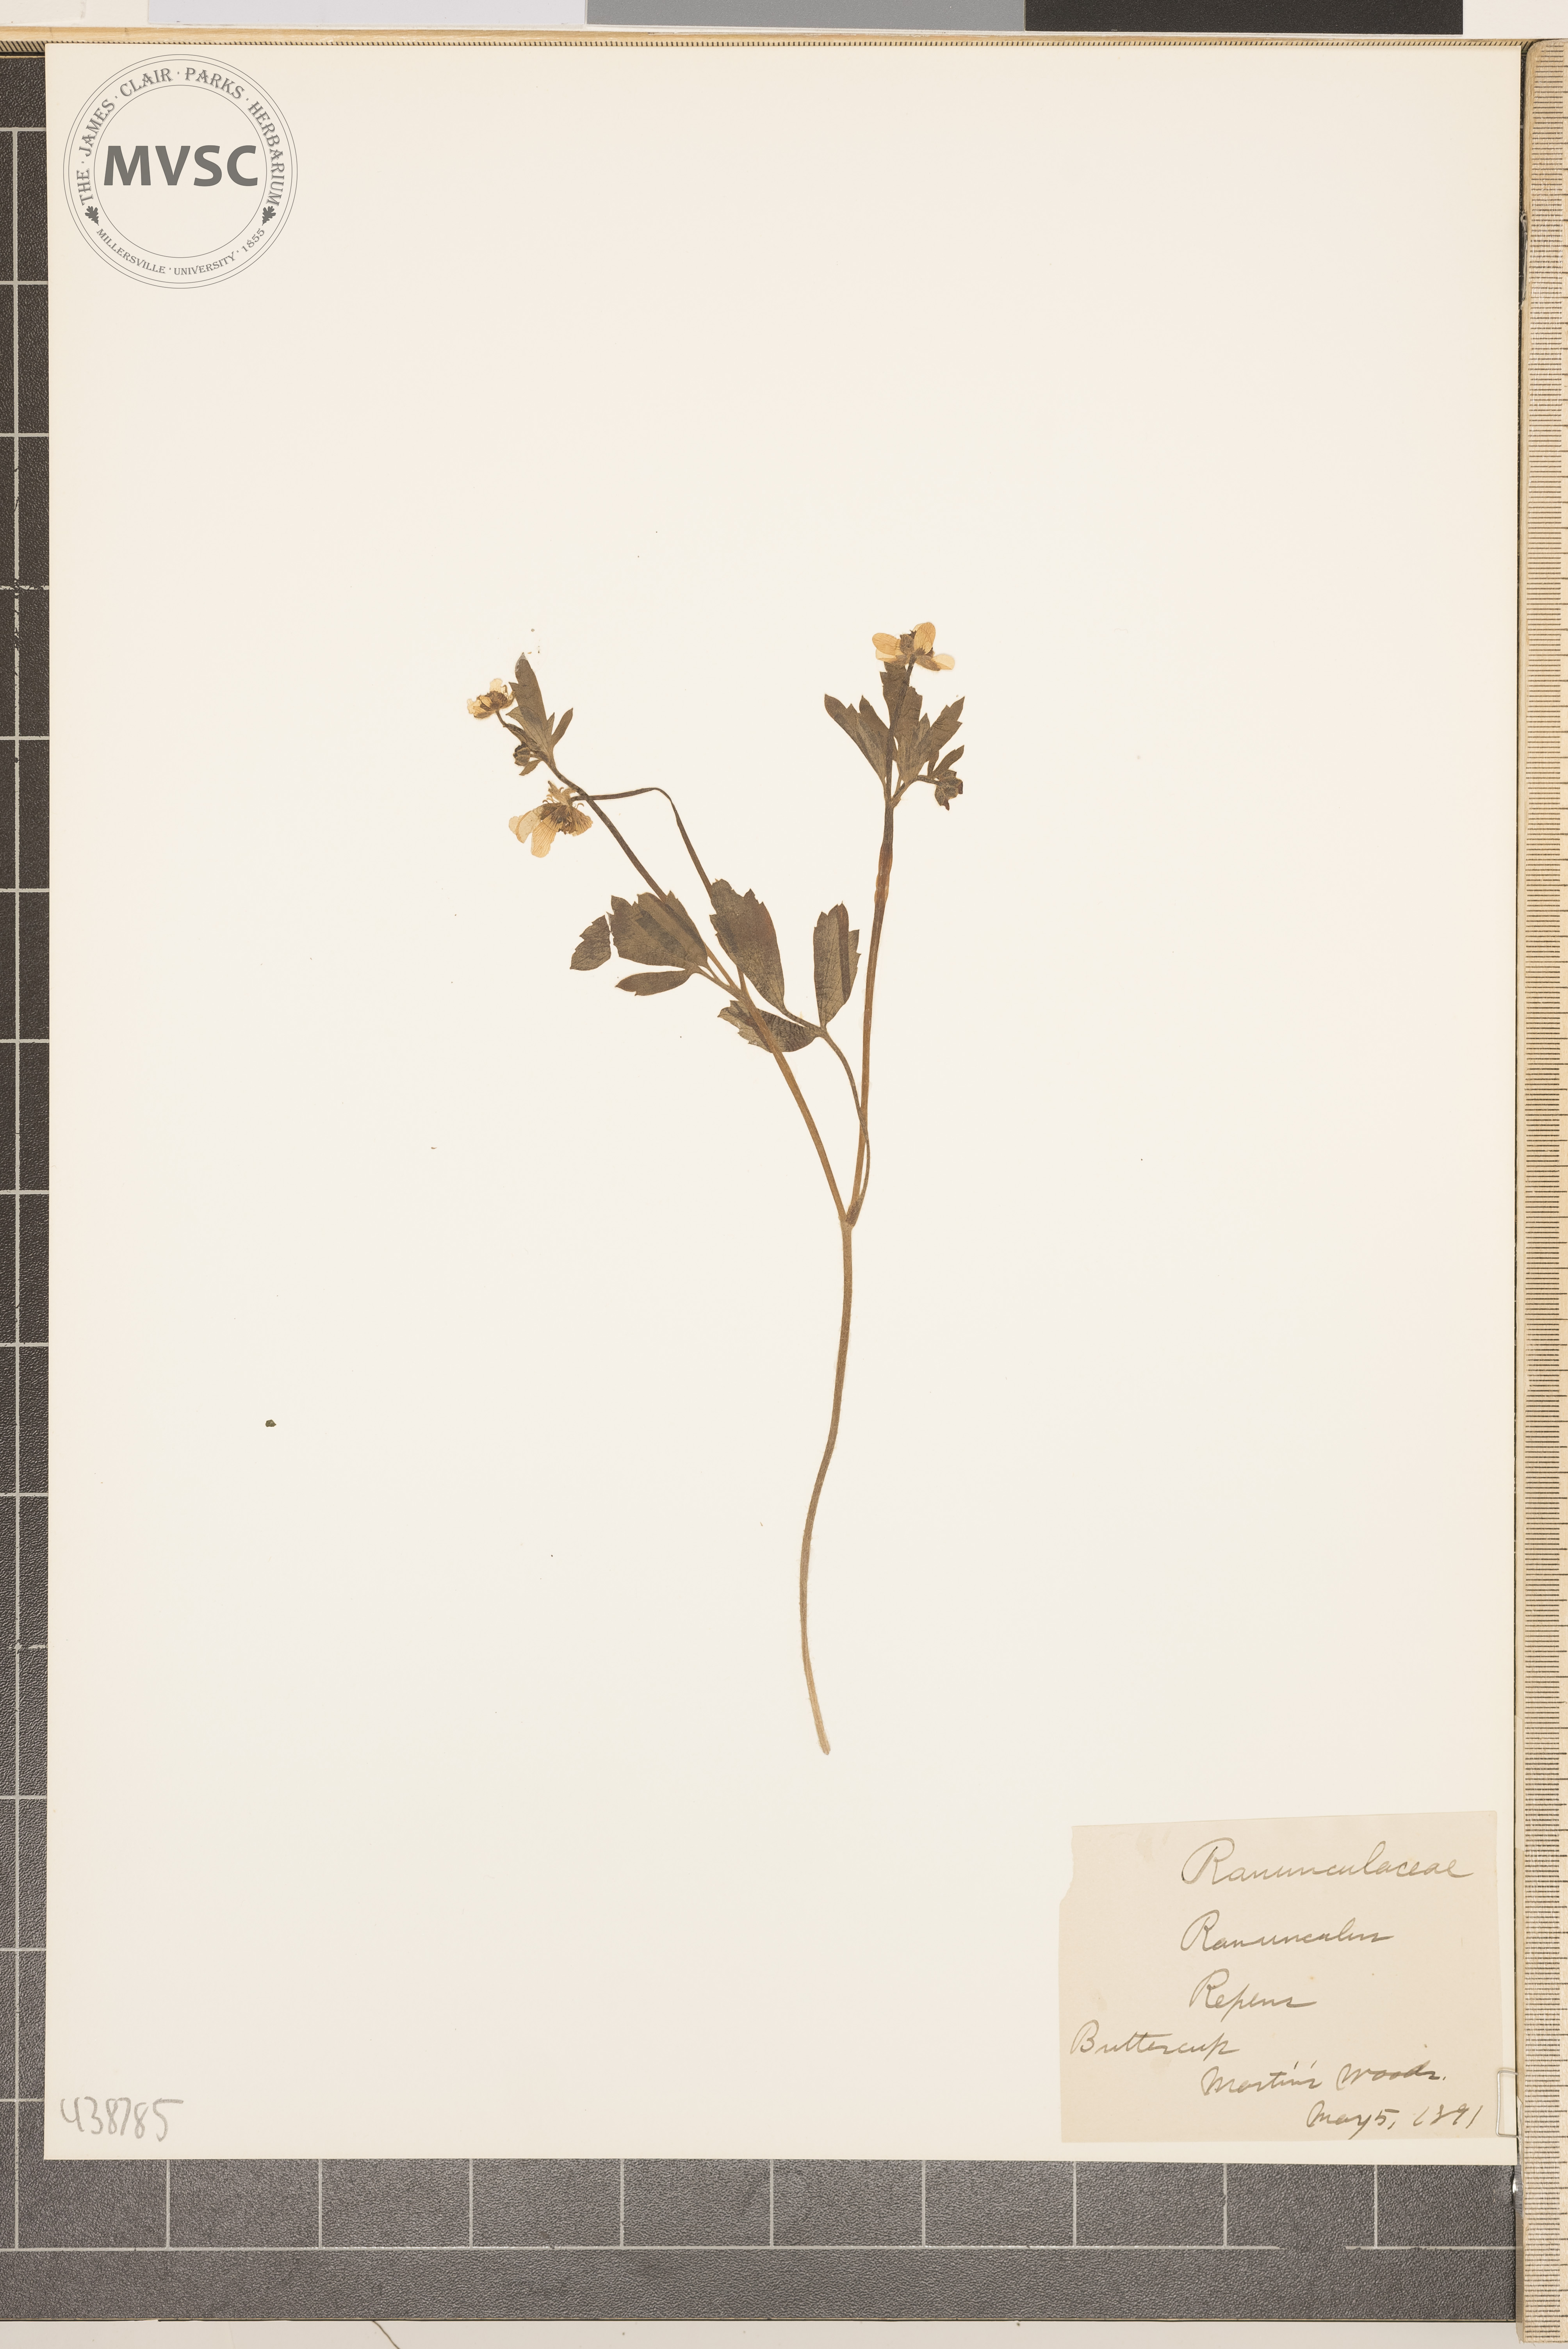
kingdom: Plantae
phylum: Tracheophyta
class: Magnoliopsida
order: Ranunculales
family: Ranunculaceae
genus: Ranunculus
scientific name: Ranunculus repens
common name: Buttercup
